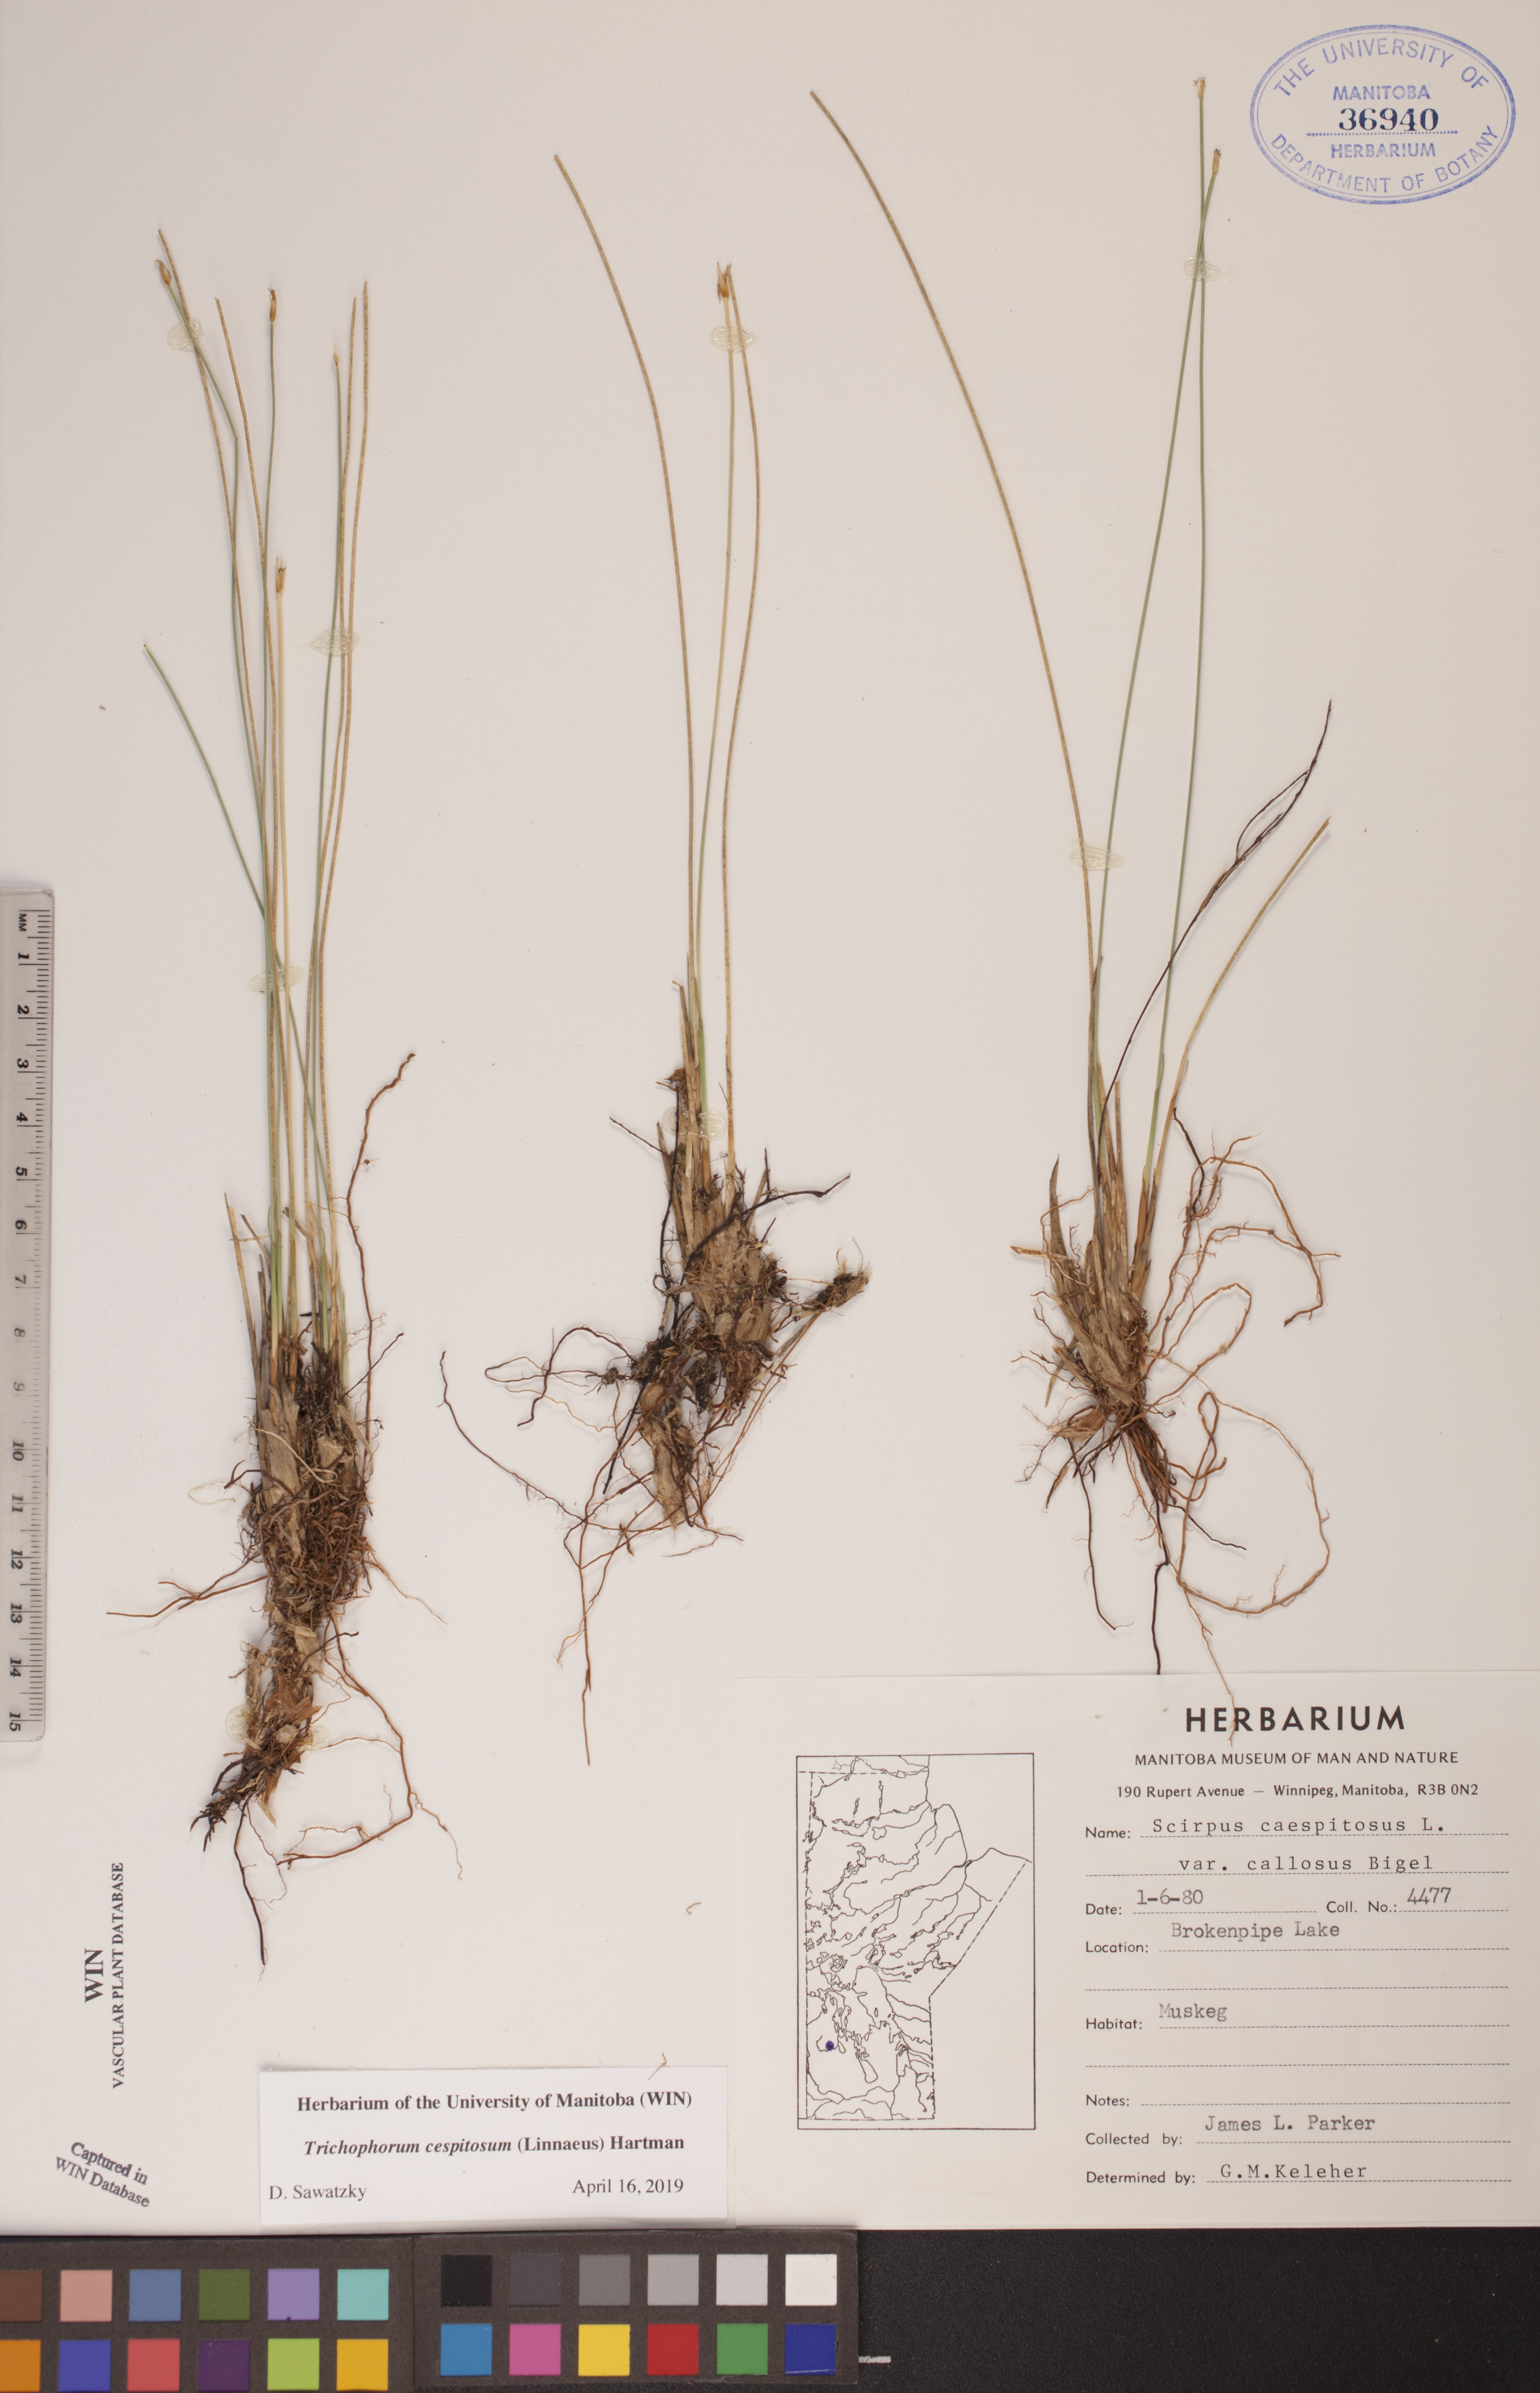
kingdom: Plantae
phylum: Tracheophyta
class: Liliopsida
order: Poales
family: Cyperaceae
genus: Trichophorum
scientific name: Trichophorum cespitosum
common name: Cespitose bulrush
